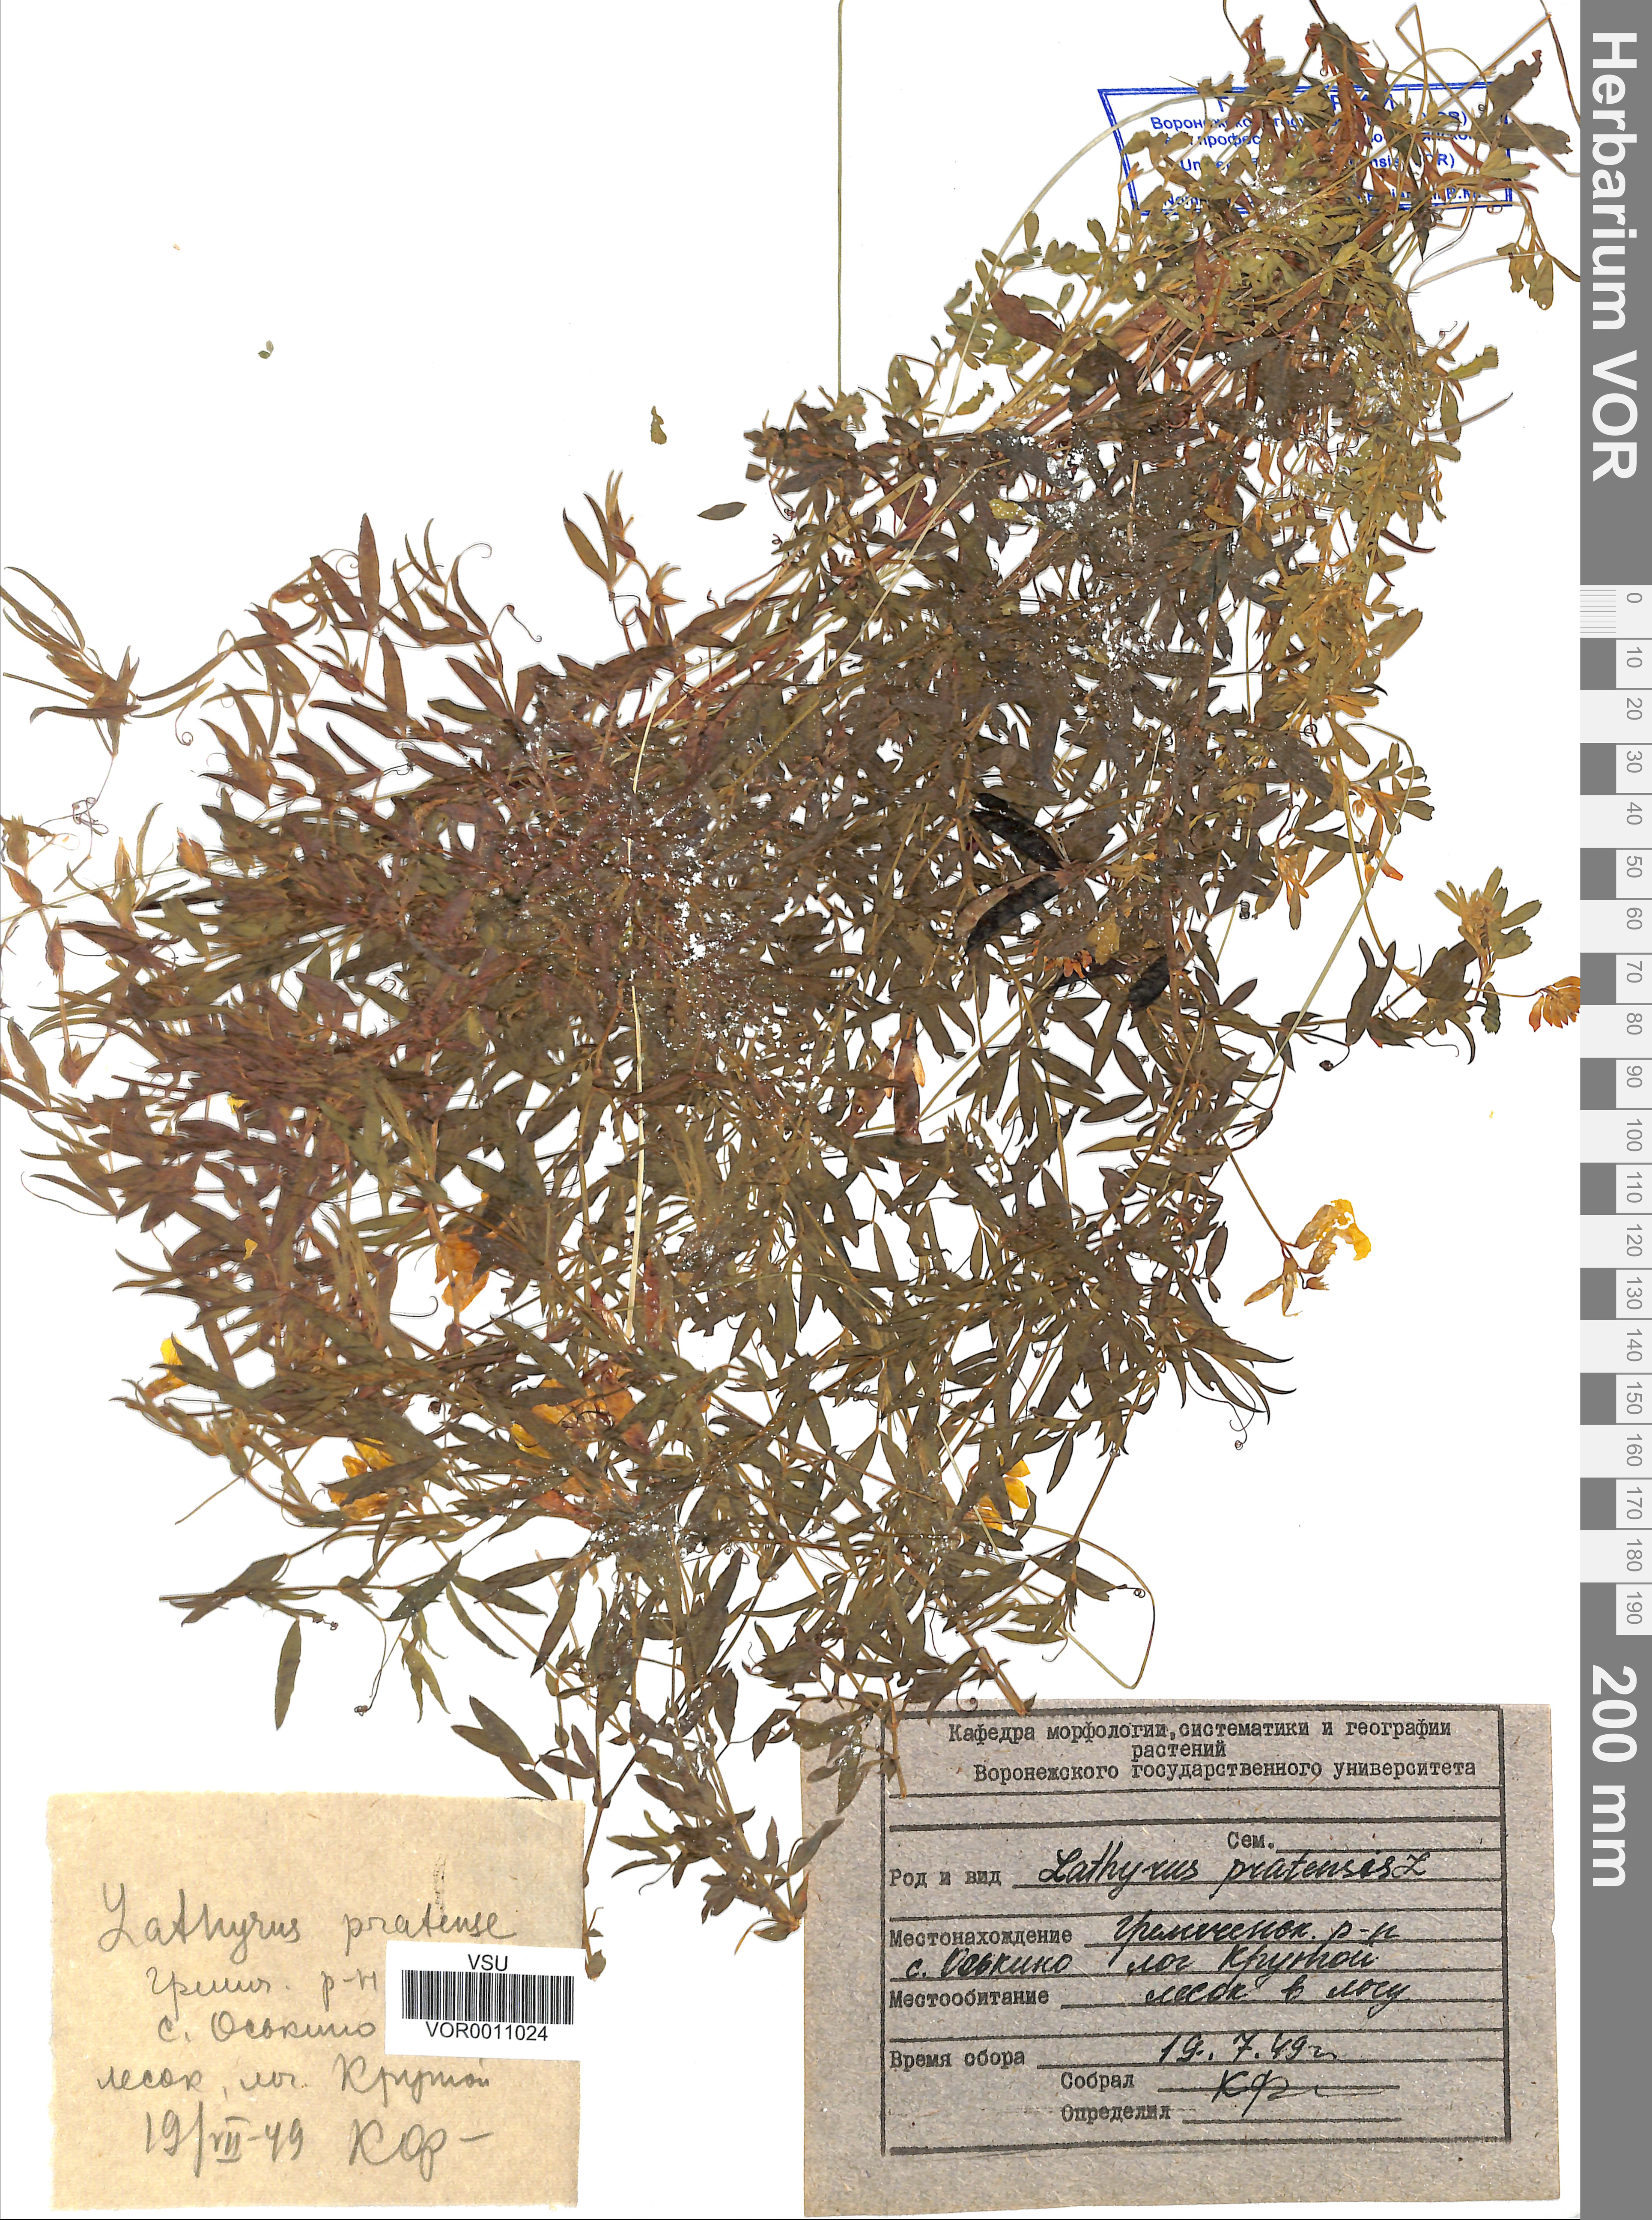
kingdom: Plantae
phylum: Tracheophyta
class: Magnoliopsida
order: Fabales
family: Fabaceae
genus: Lathyrus
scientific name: Lathyrus pratensis
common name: Meadow vetchling
